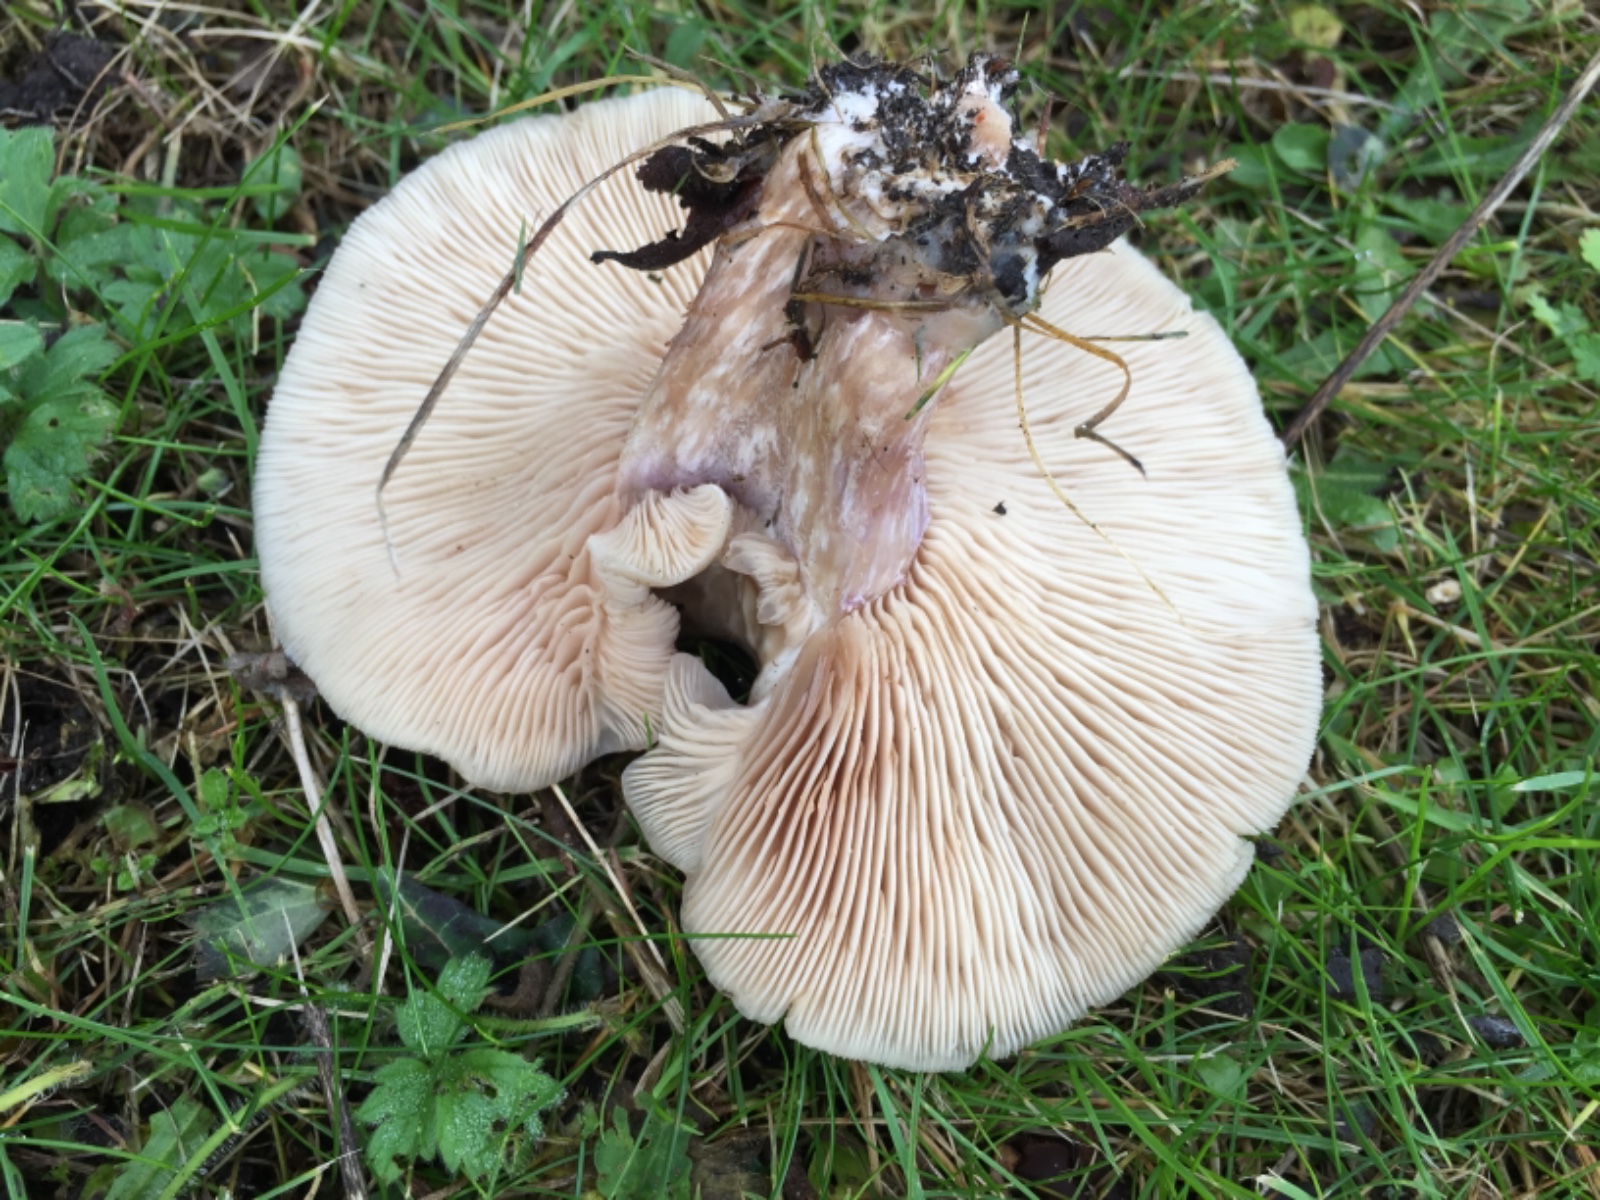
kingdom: Fungi
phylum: Basidiomycota
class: Agaricomycetes
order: Agaricales
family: Tricholomataceae
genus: Lepista
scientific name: Lepista personata
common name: bleg hekseringshat
